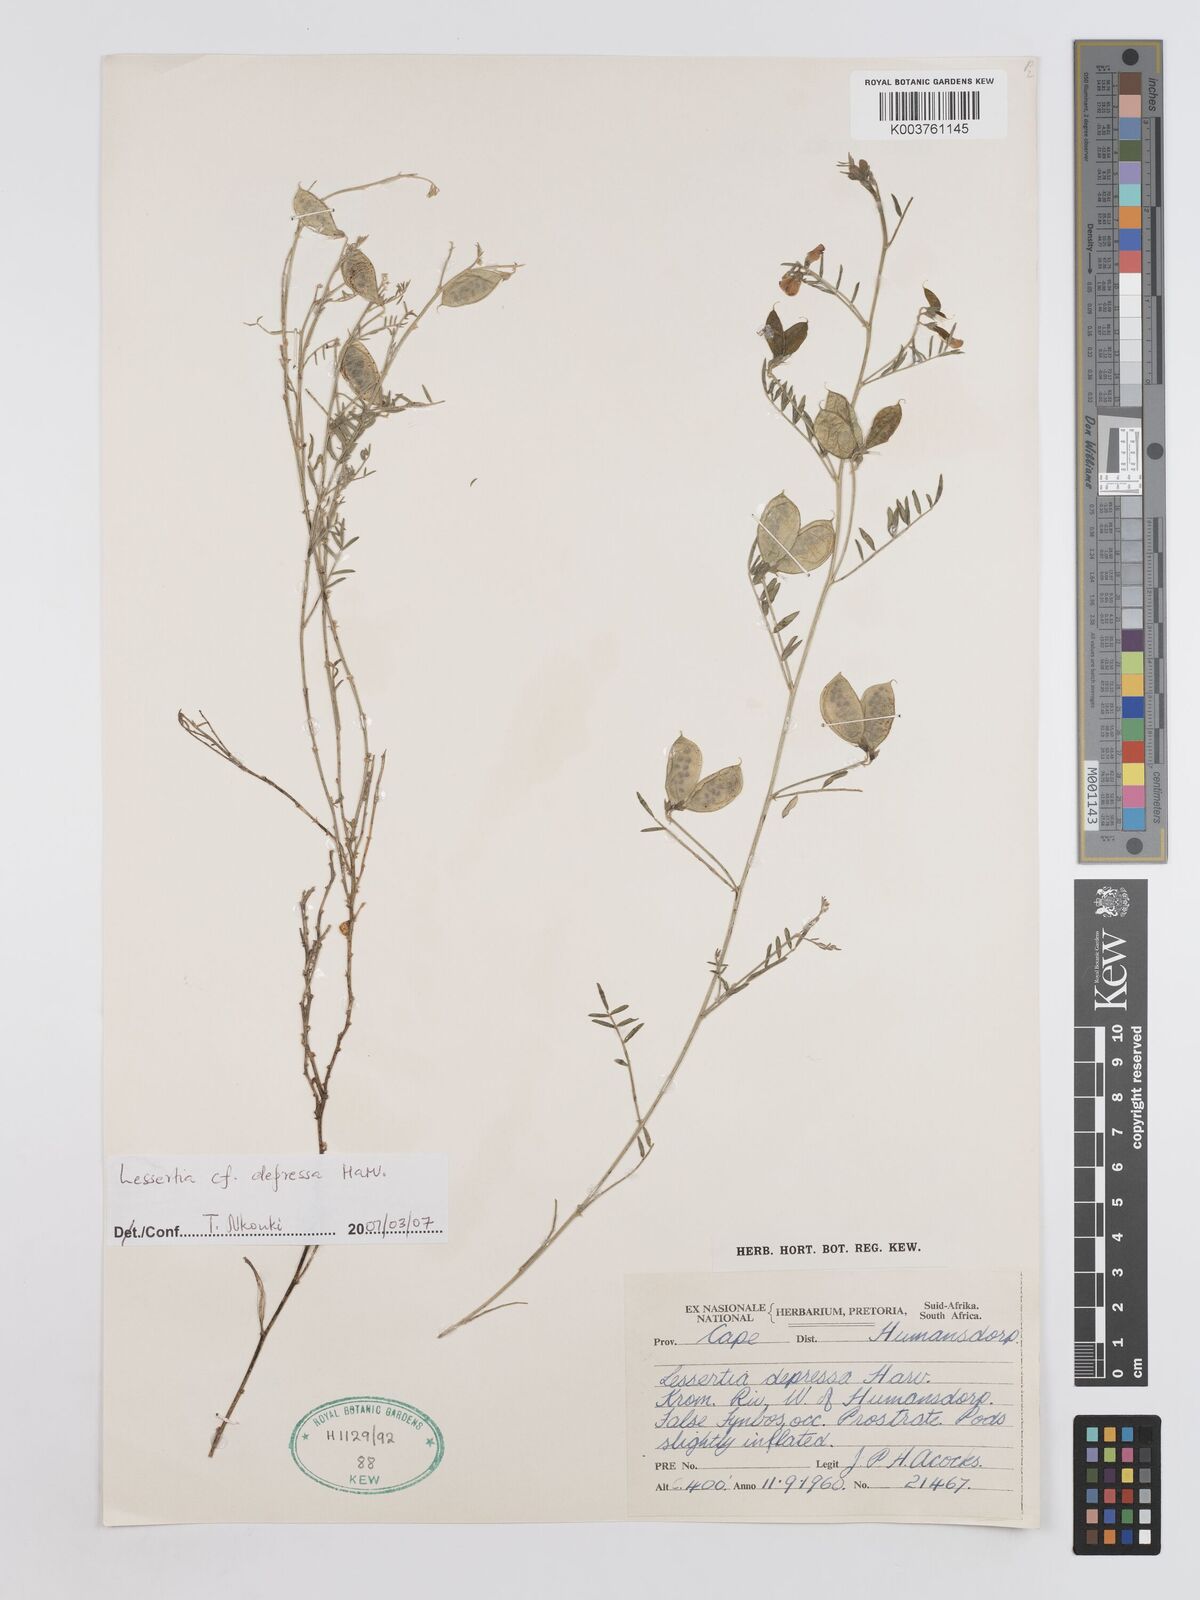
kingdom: Plantae
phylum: Tracheophyta
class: Magnoliopsida
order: Fabales
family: Fabaceae
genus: Lessertia
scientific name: Lessertia depressa
